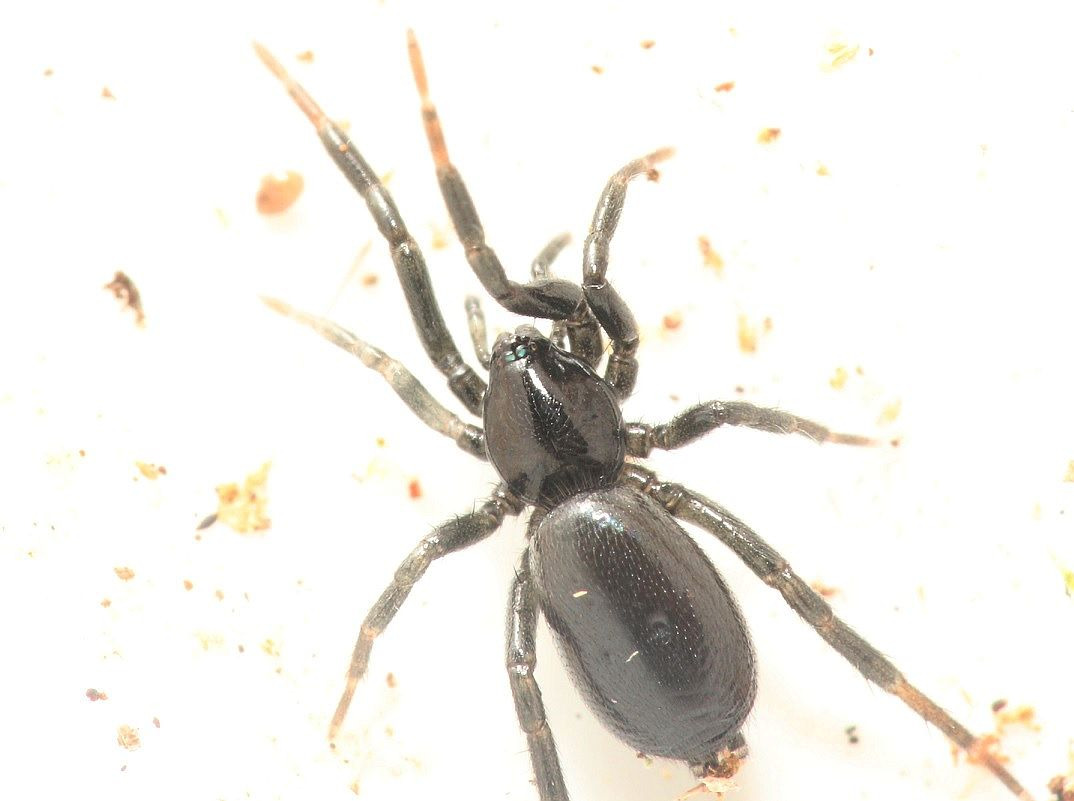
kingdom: Animalia
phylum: Arthropoda
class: Arachnida
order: Araneae
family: Gnaphosidae
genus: Drassyllus
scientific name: Drassyllus
